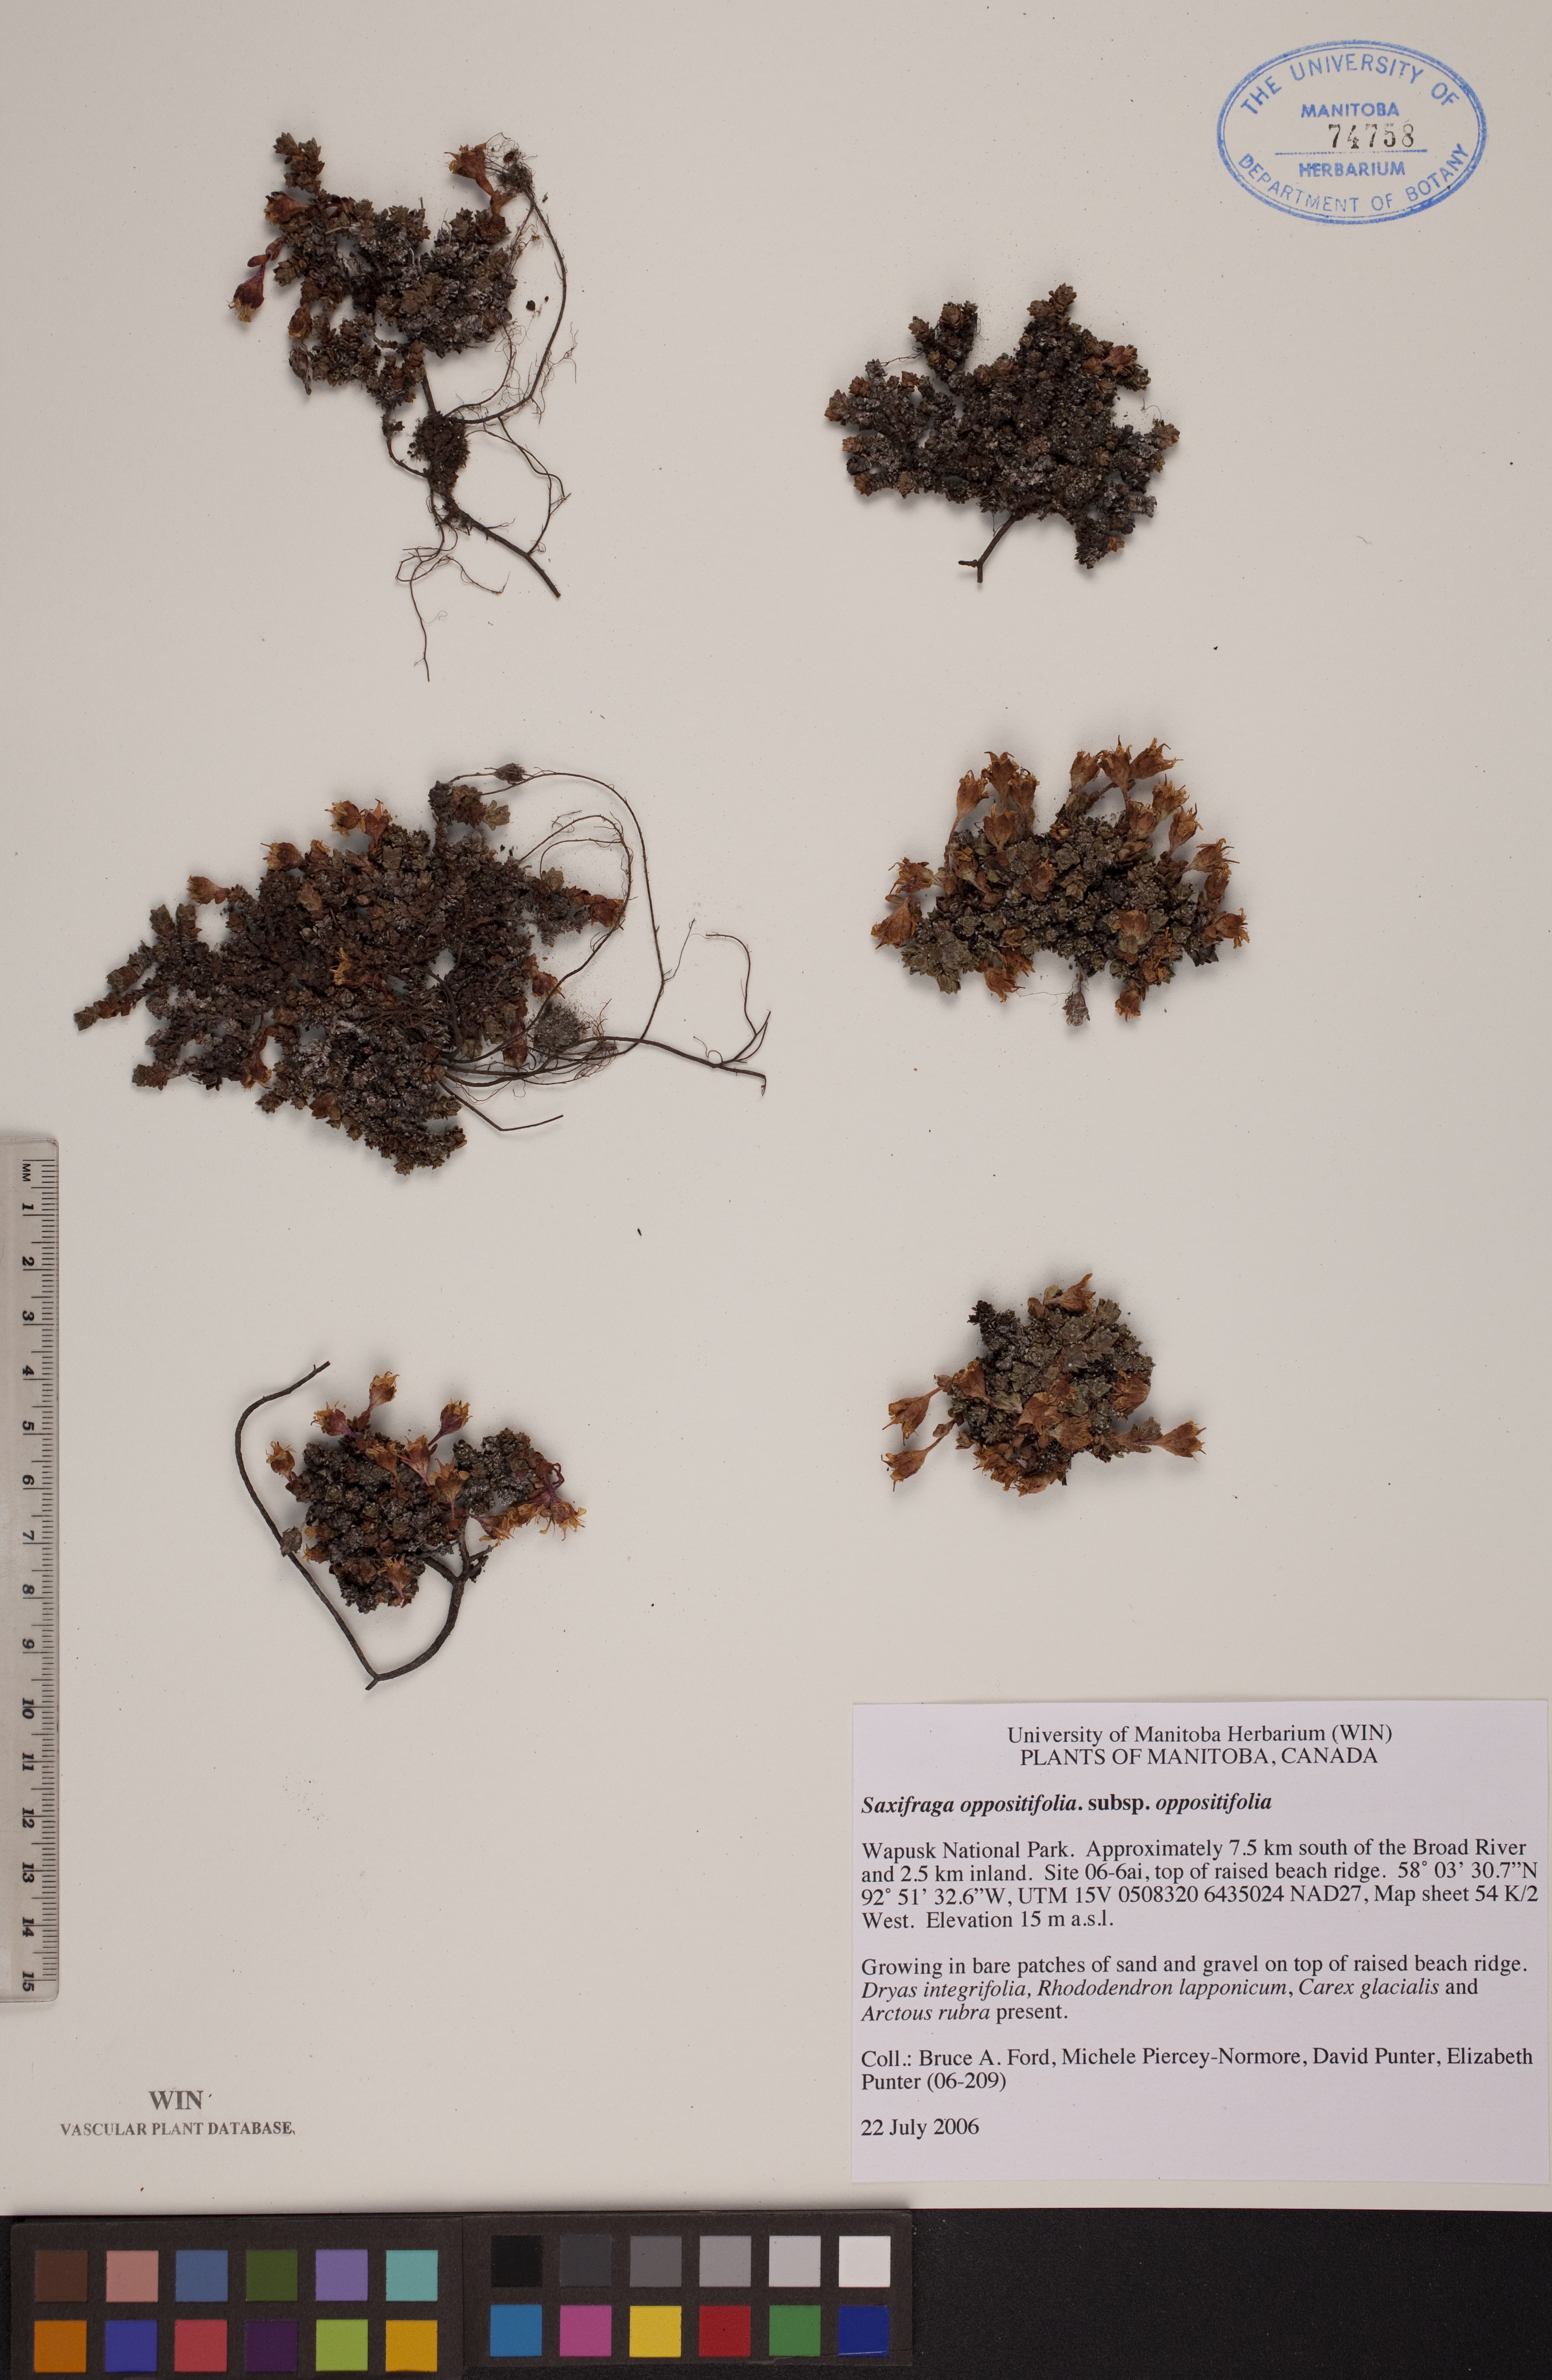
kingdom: Plantae
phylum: Tracheophyta
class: Magnoliopsida
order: Saxifragales
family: Saxifragaceae
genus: Saxifraga
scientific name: Saxifraga oppositifolia
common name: Purple saxifrage
